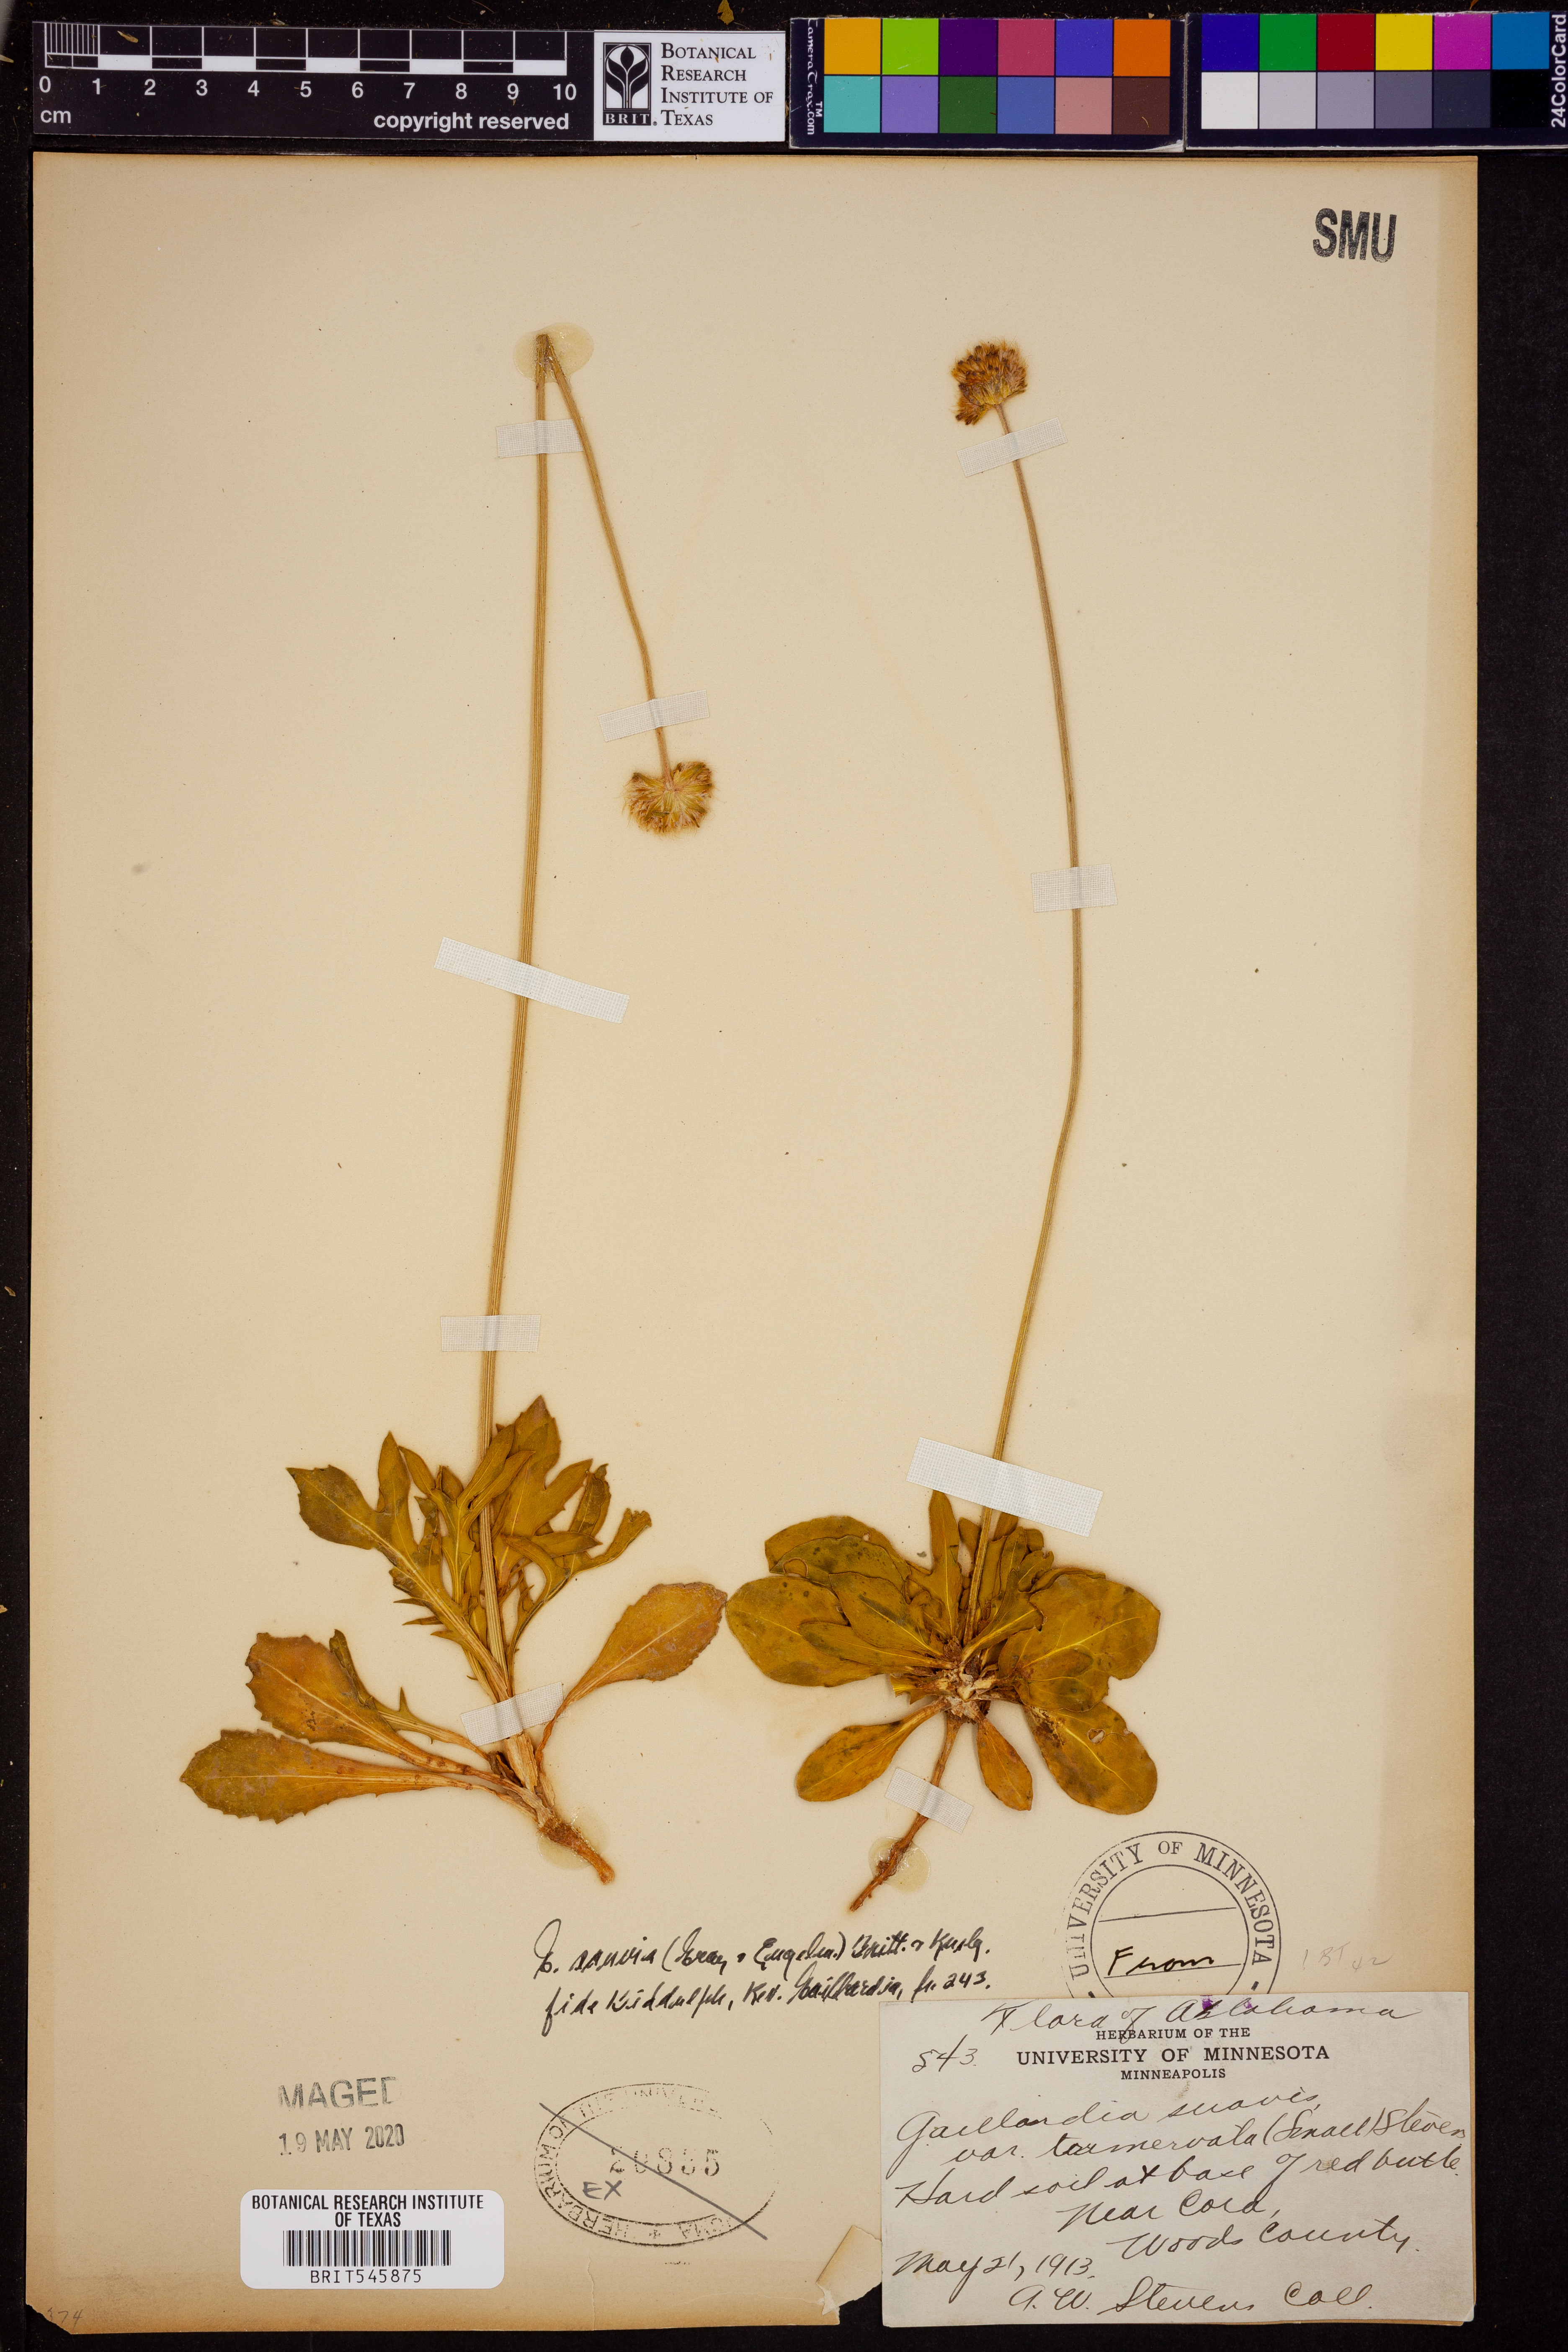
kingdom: Plantae
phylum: Tracheophyta
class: Magnoliopsida
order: Asterales
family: Asteraceae
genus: Gaillardia
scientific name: Gaillardia suavis
